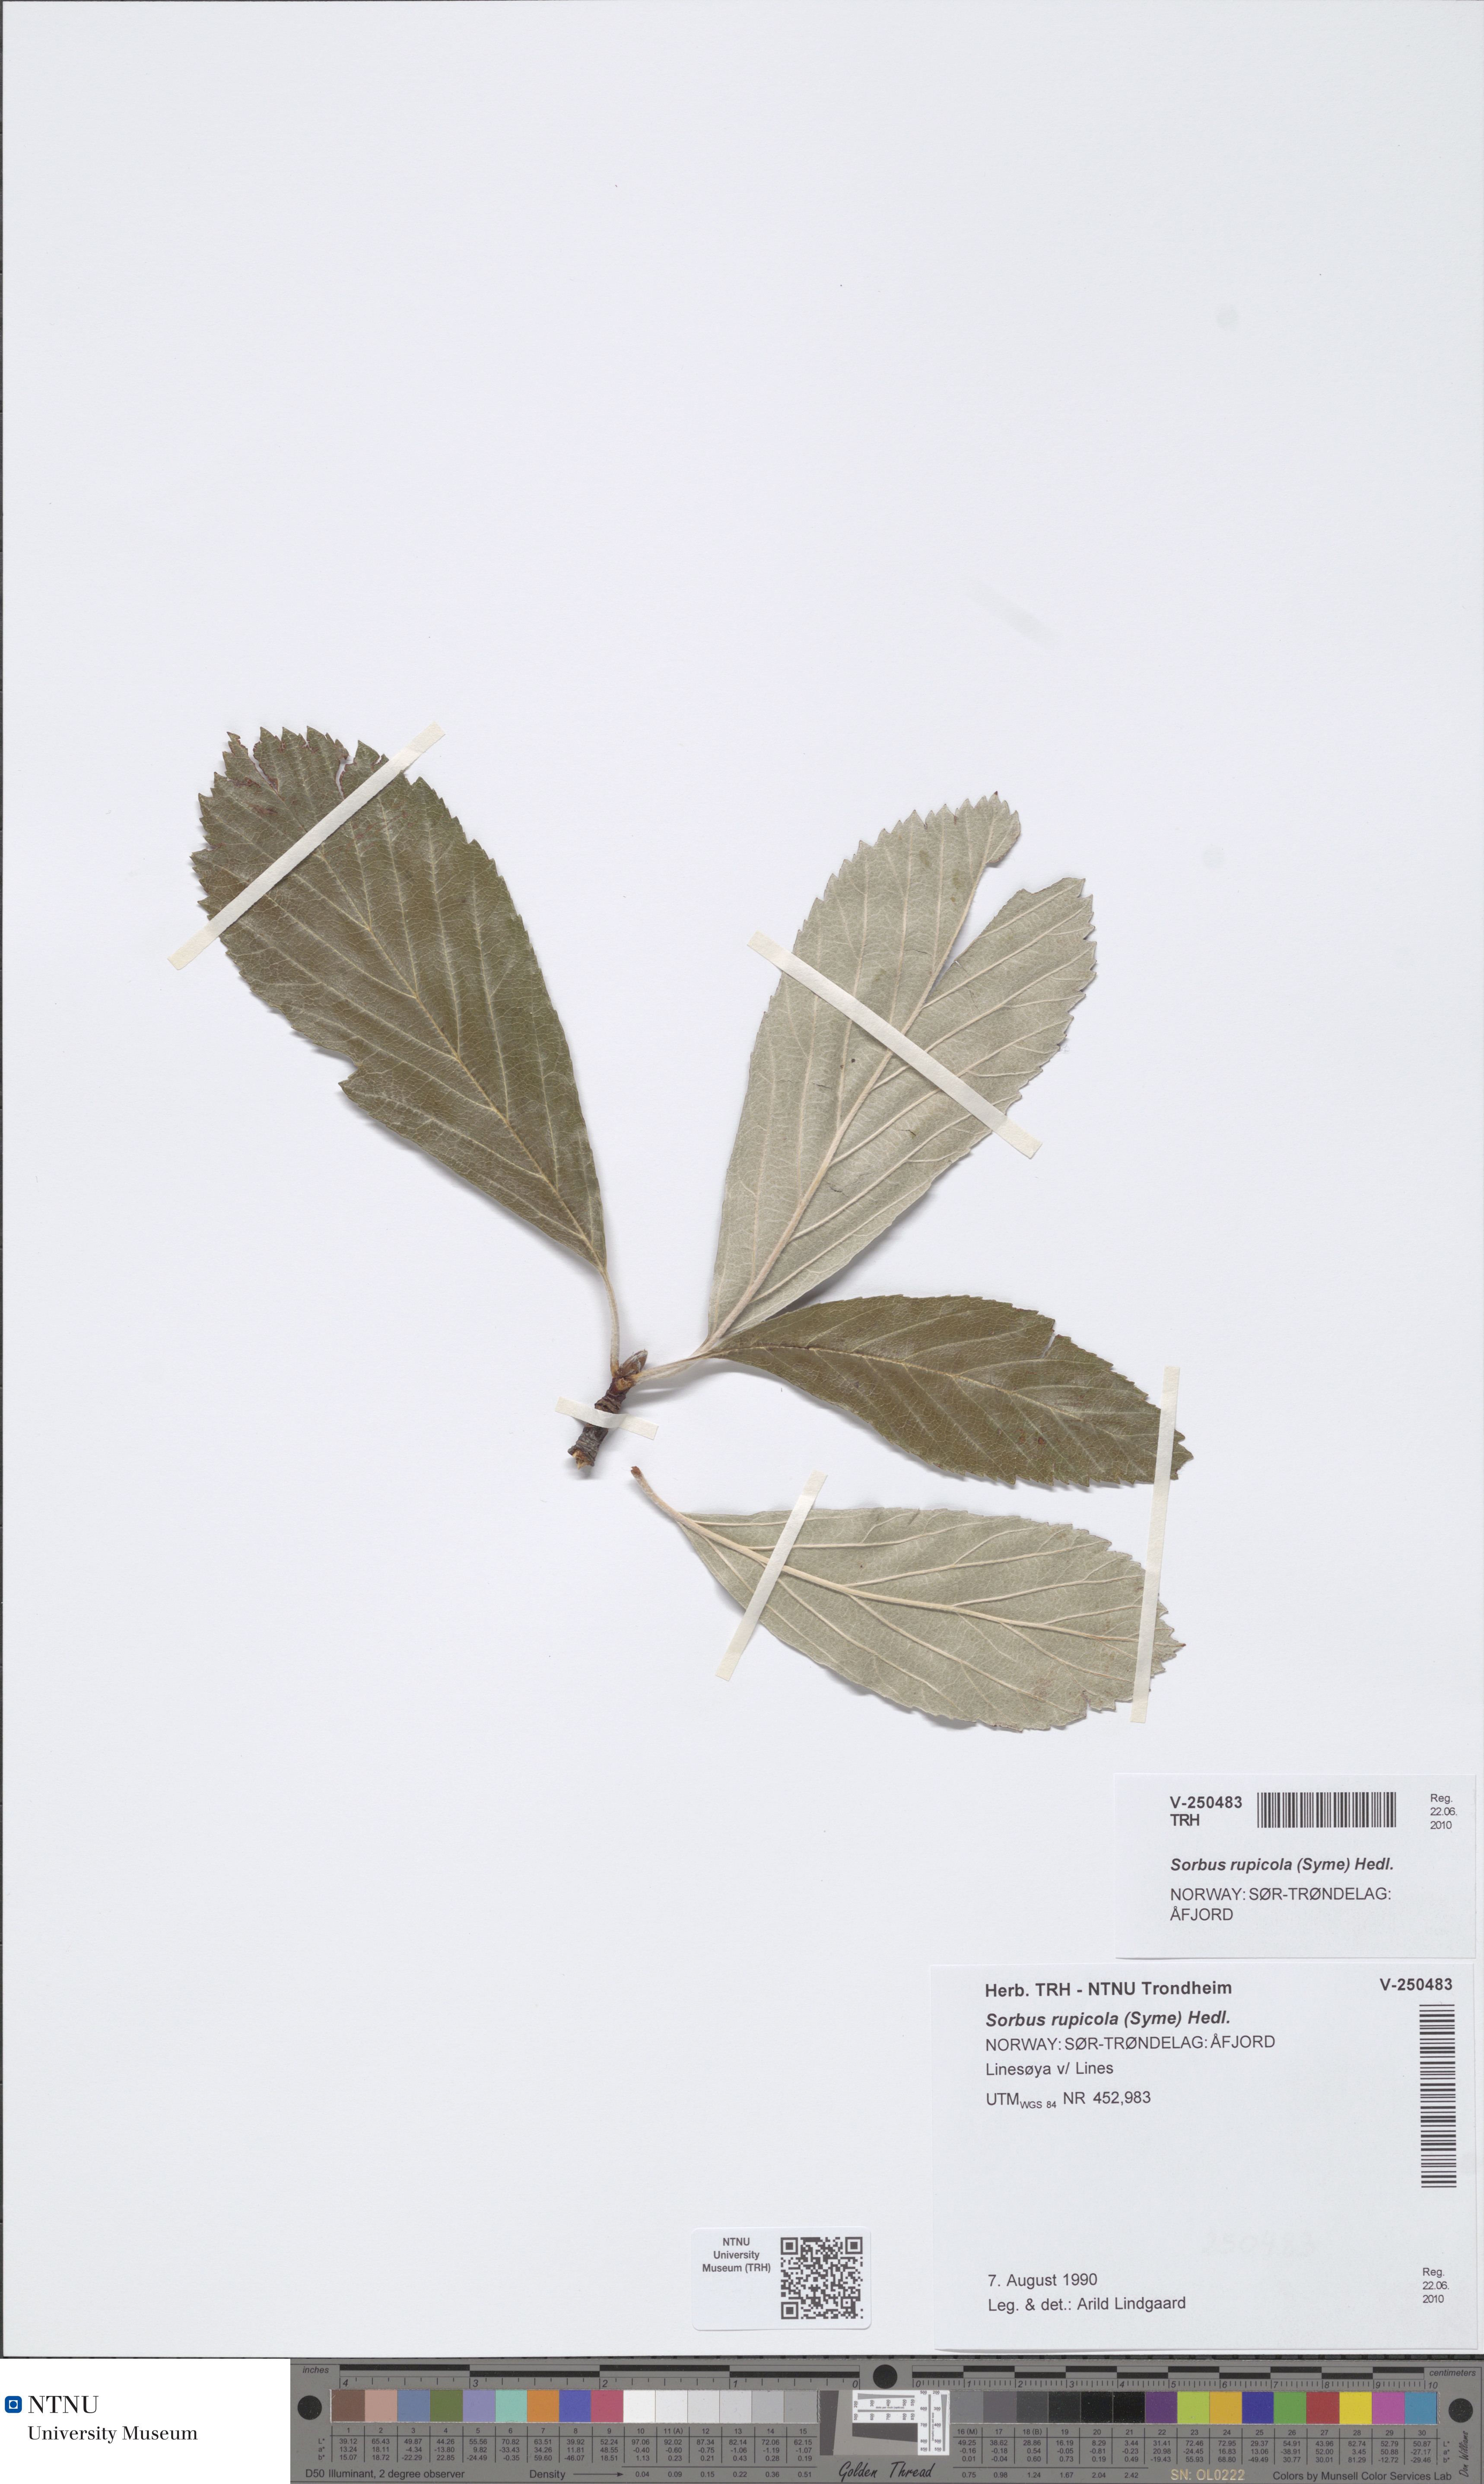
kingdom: Plantae
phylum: Tracheophyta
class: Magnoliopsida
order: Rosales
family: Rosaceae
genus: Aria
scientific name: Aria rupicola
